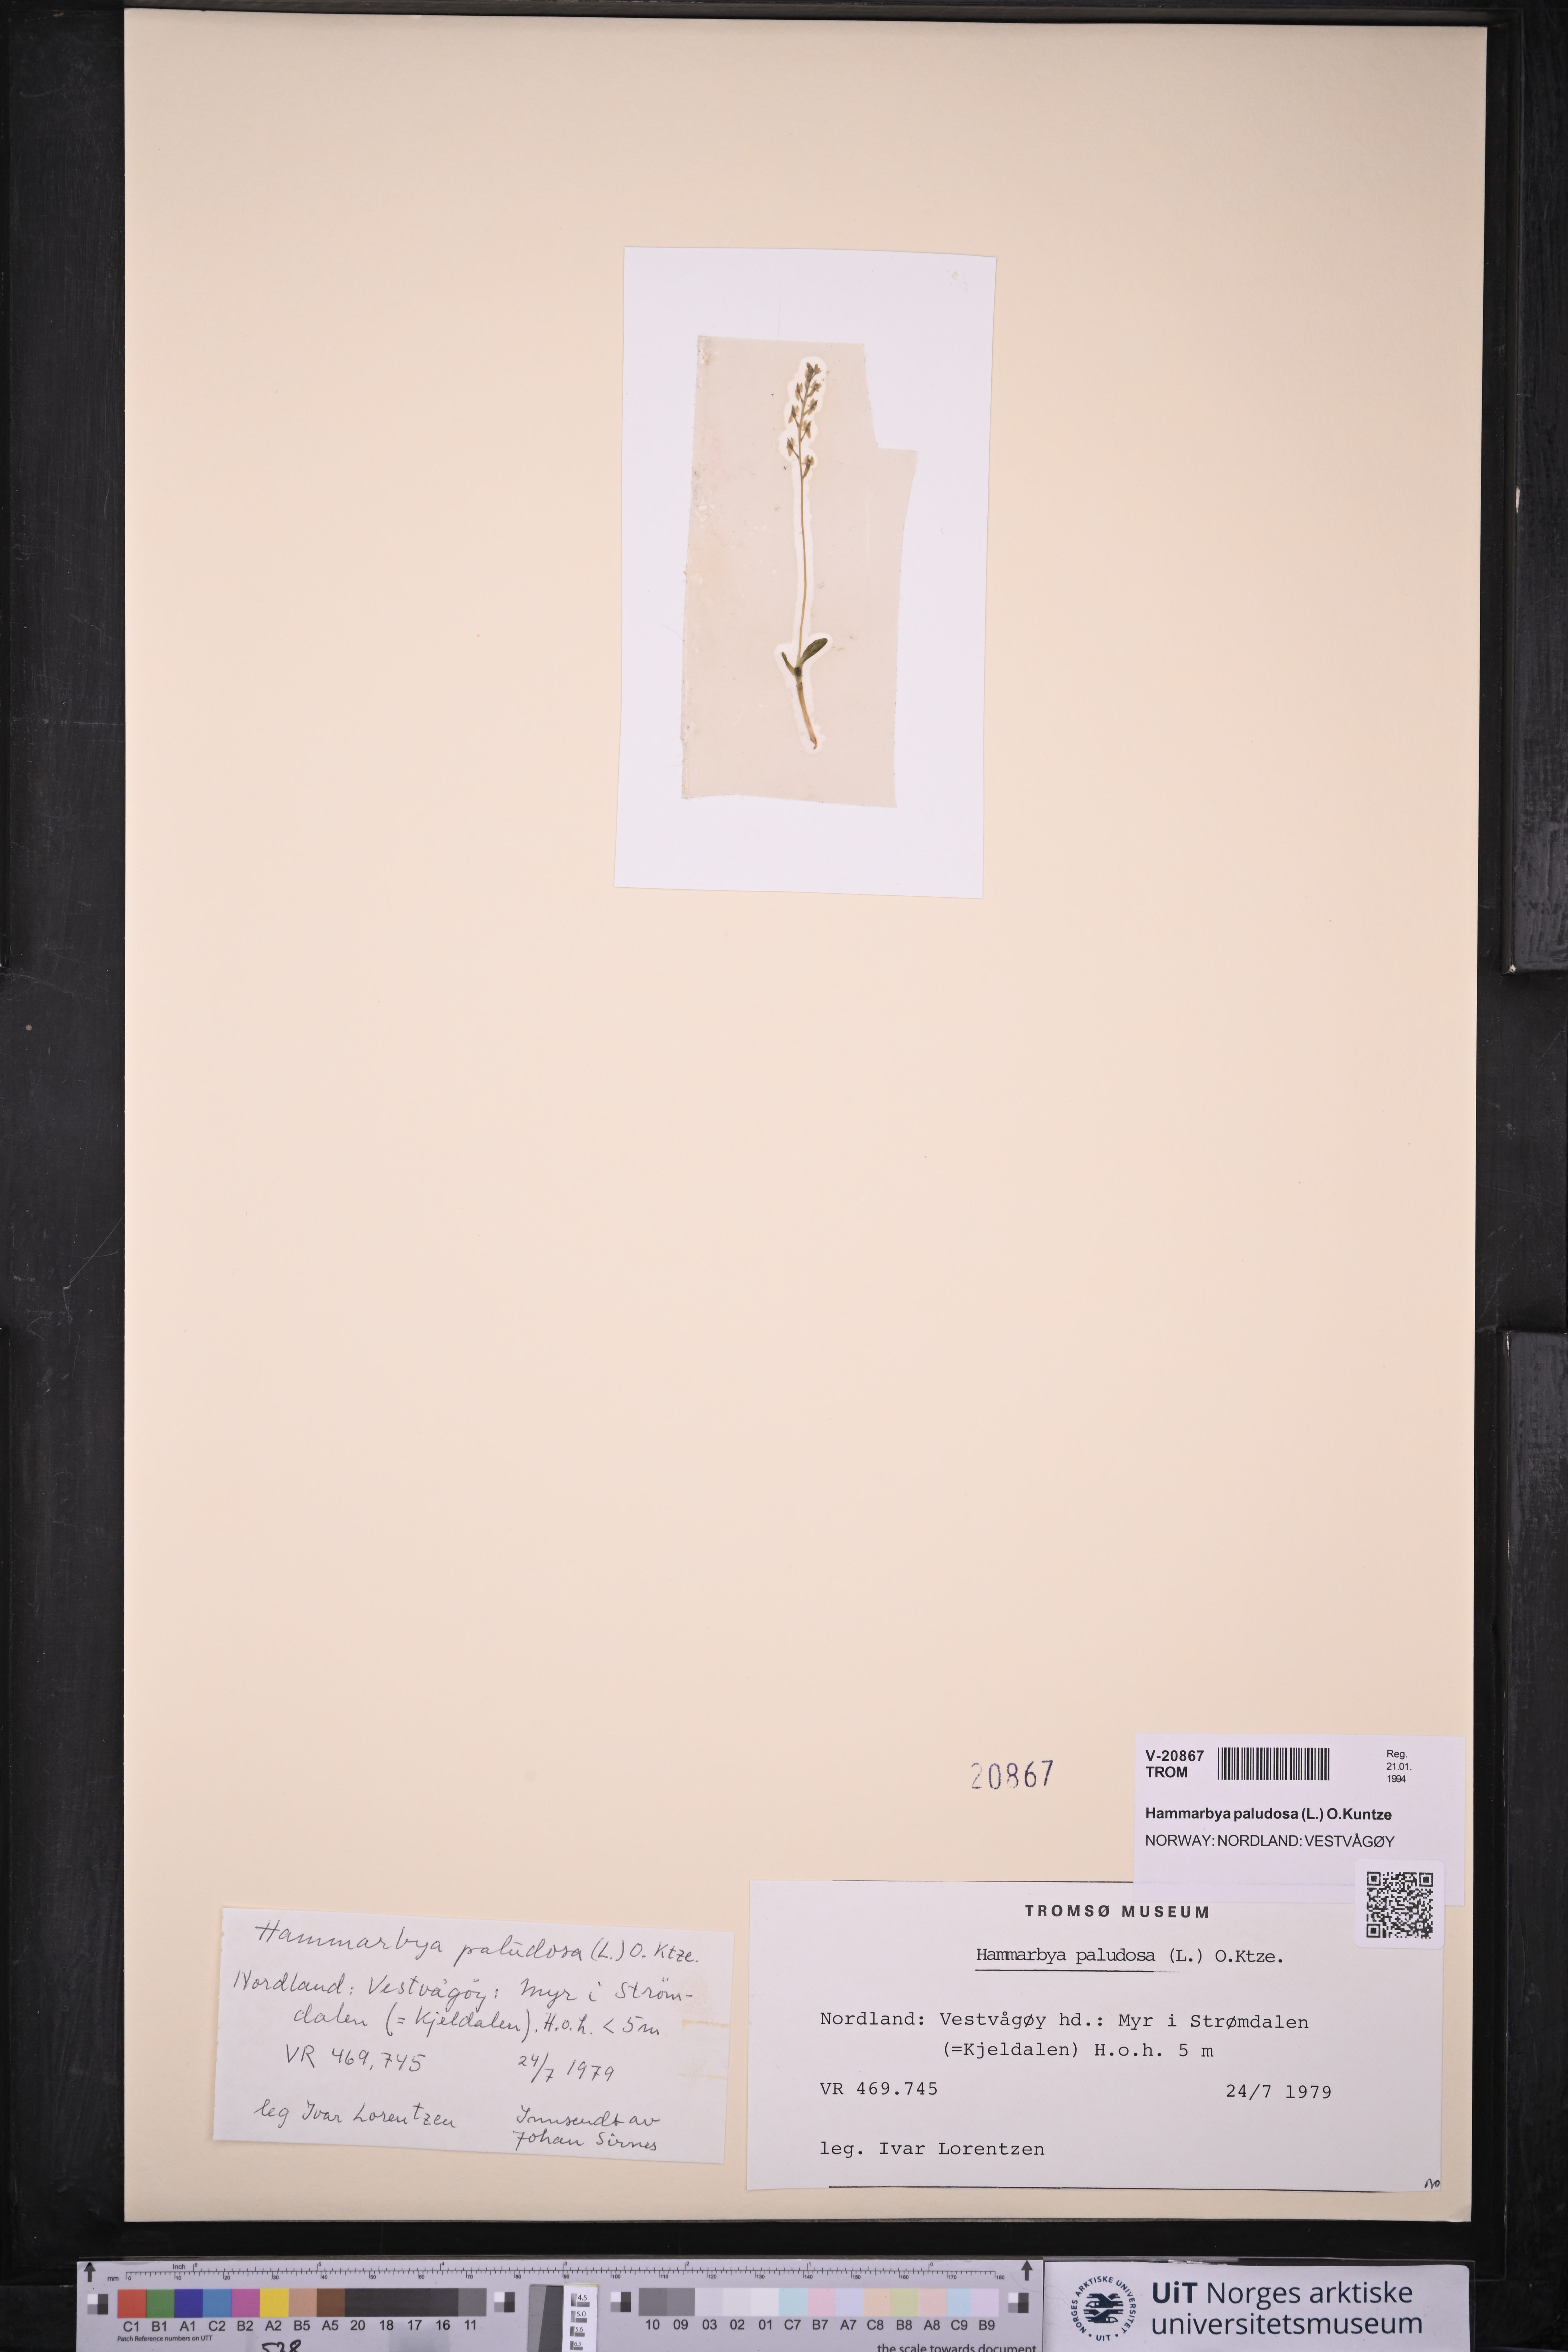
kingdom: Plantae
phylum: Tracheophyta
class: Liliopsida
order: Asparagales
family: Orchidaceae
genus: Hammarbya
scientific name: Hammarbya paludosa
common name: Bog orchid
